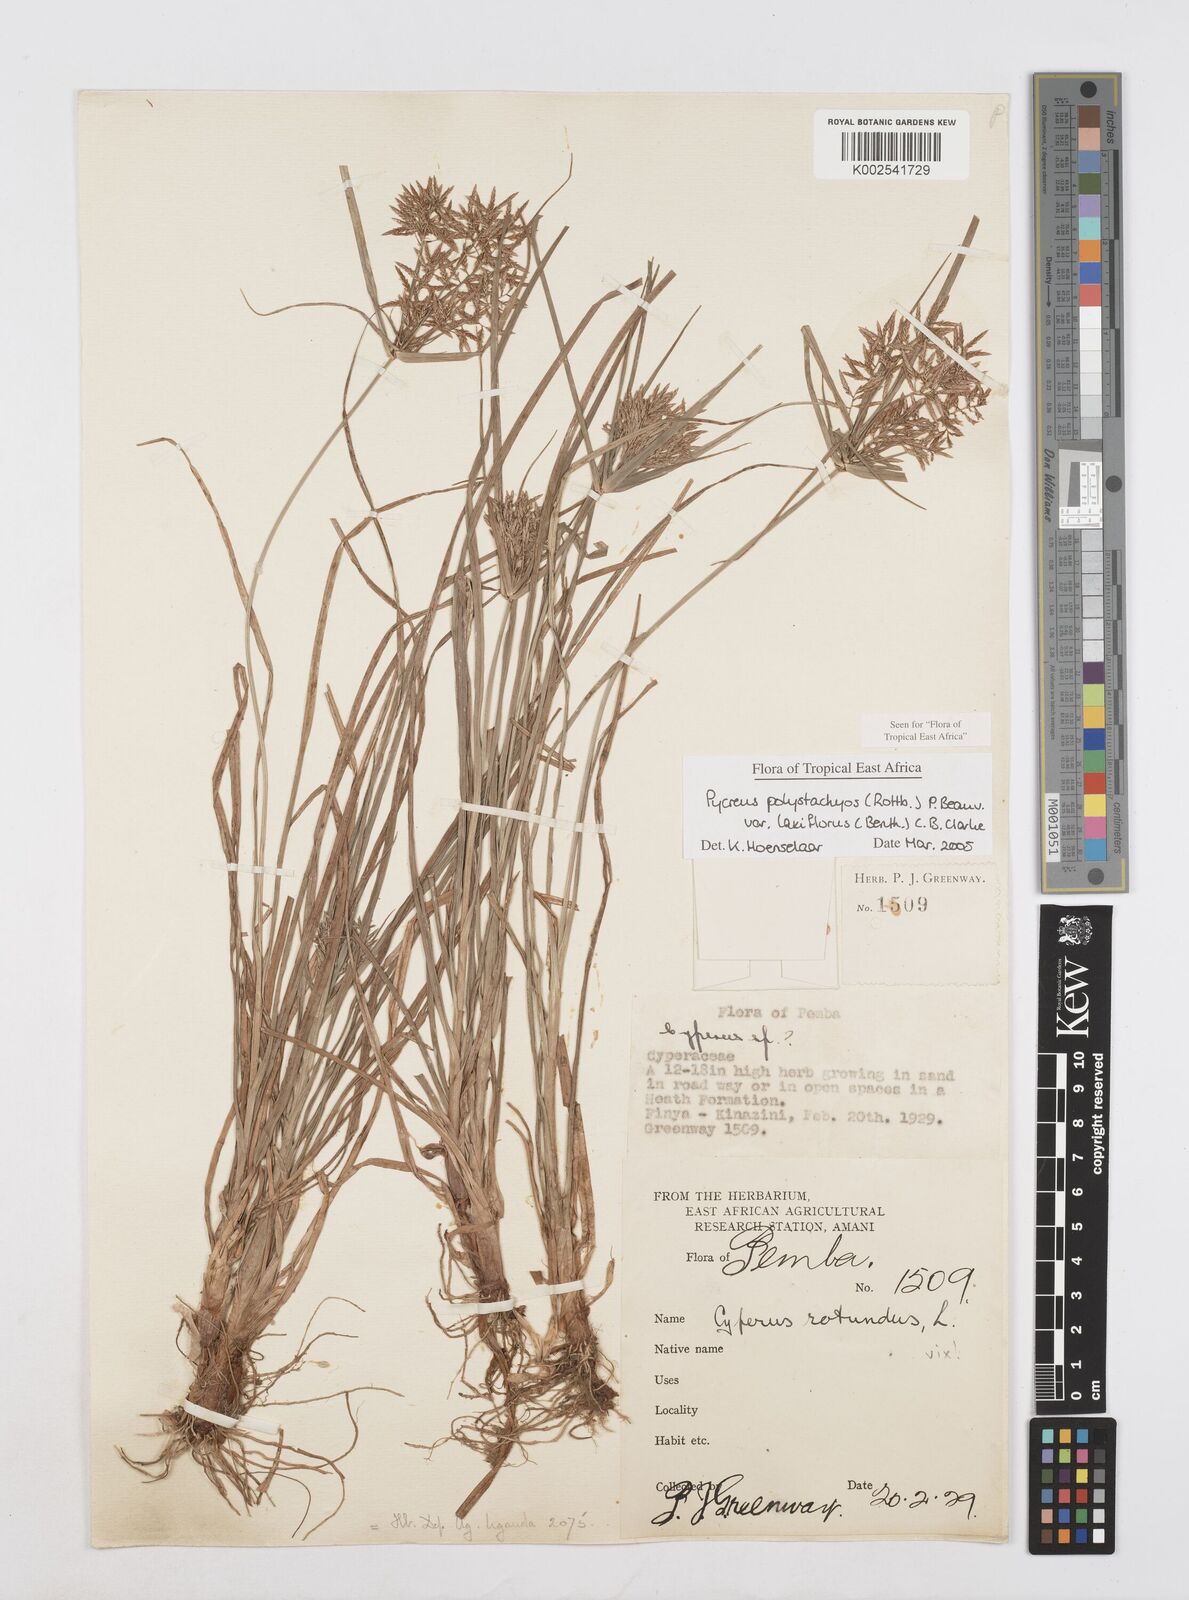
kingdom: Plantae
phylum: Tracheophyta
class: Liliopsida
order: Poales
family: Cyperaceae
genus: Cyperus
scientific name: Cyperus polystachyos
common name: Bunchy flat sedge
